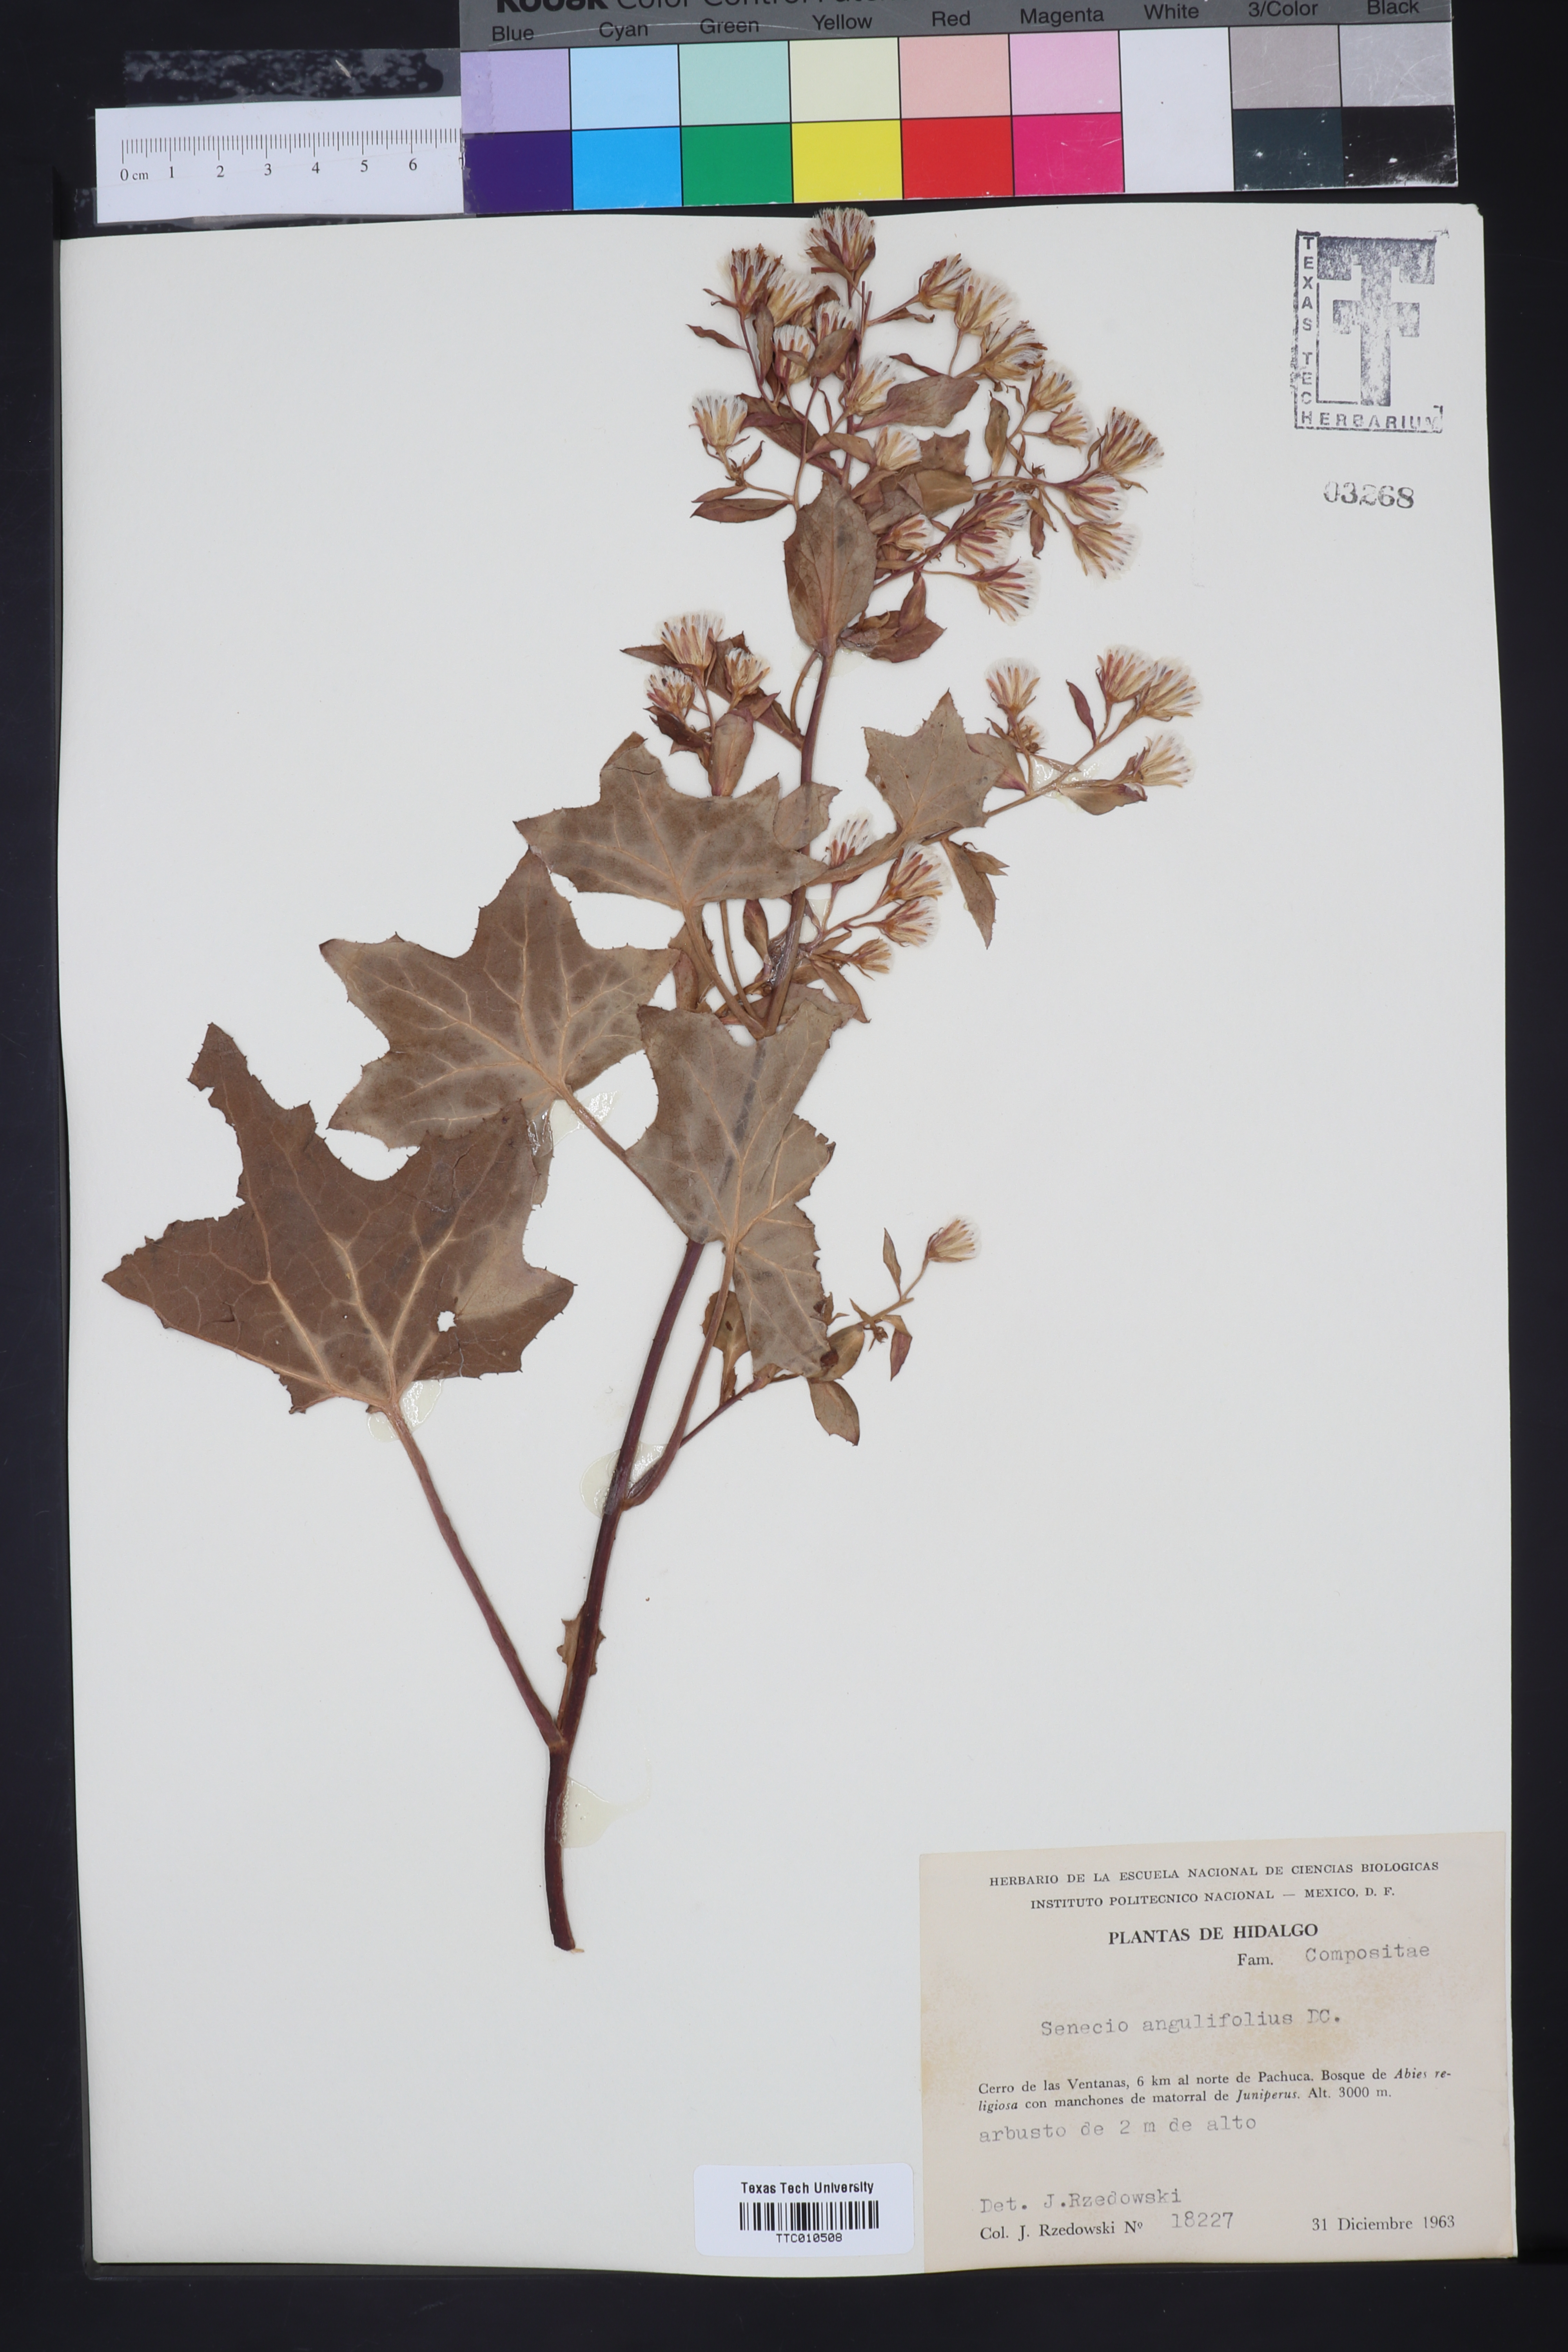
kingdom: Plantae
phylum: Tracheophyta
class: Magnoliopsida
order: Asterales
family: Asteraceae
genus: Roldana
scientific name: Roldana angulifolia
